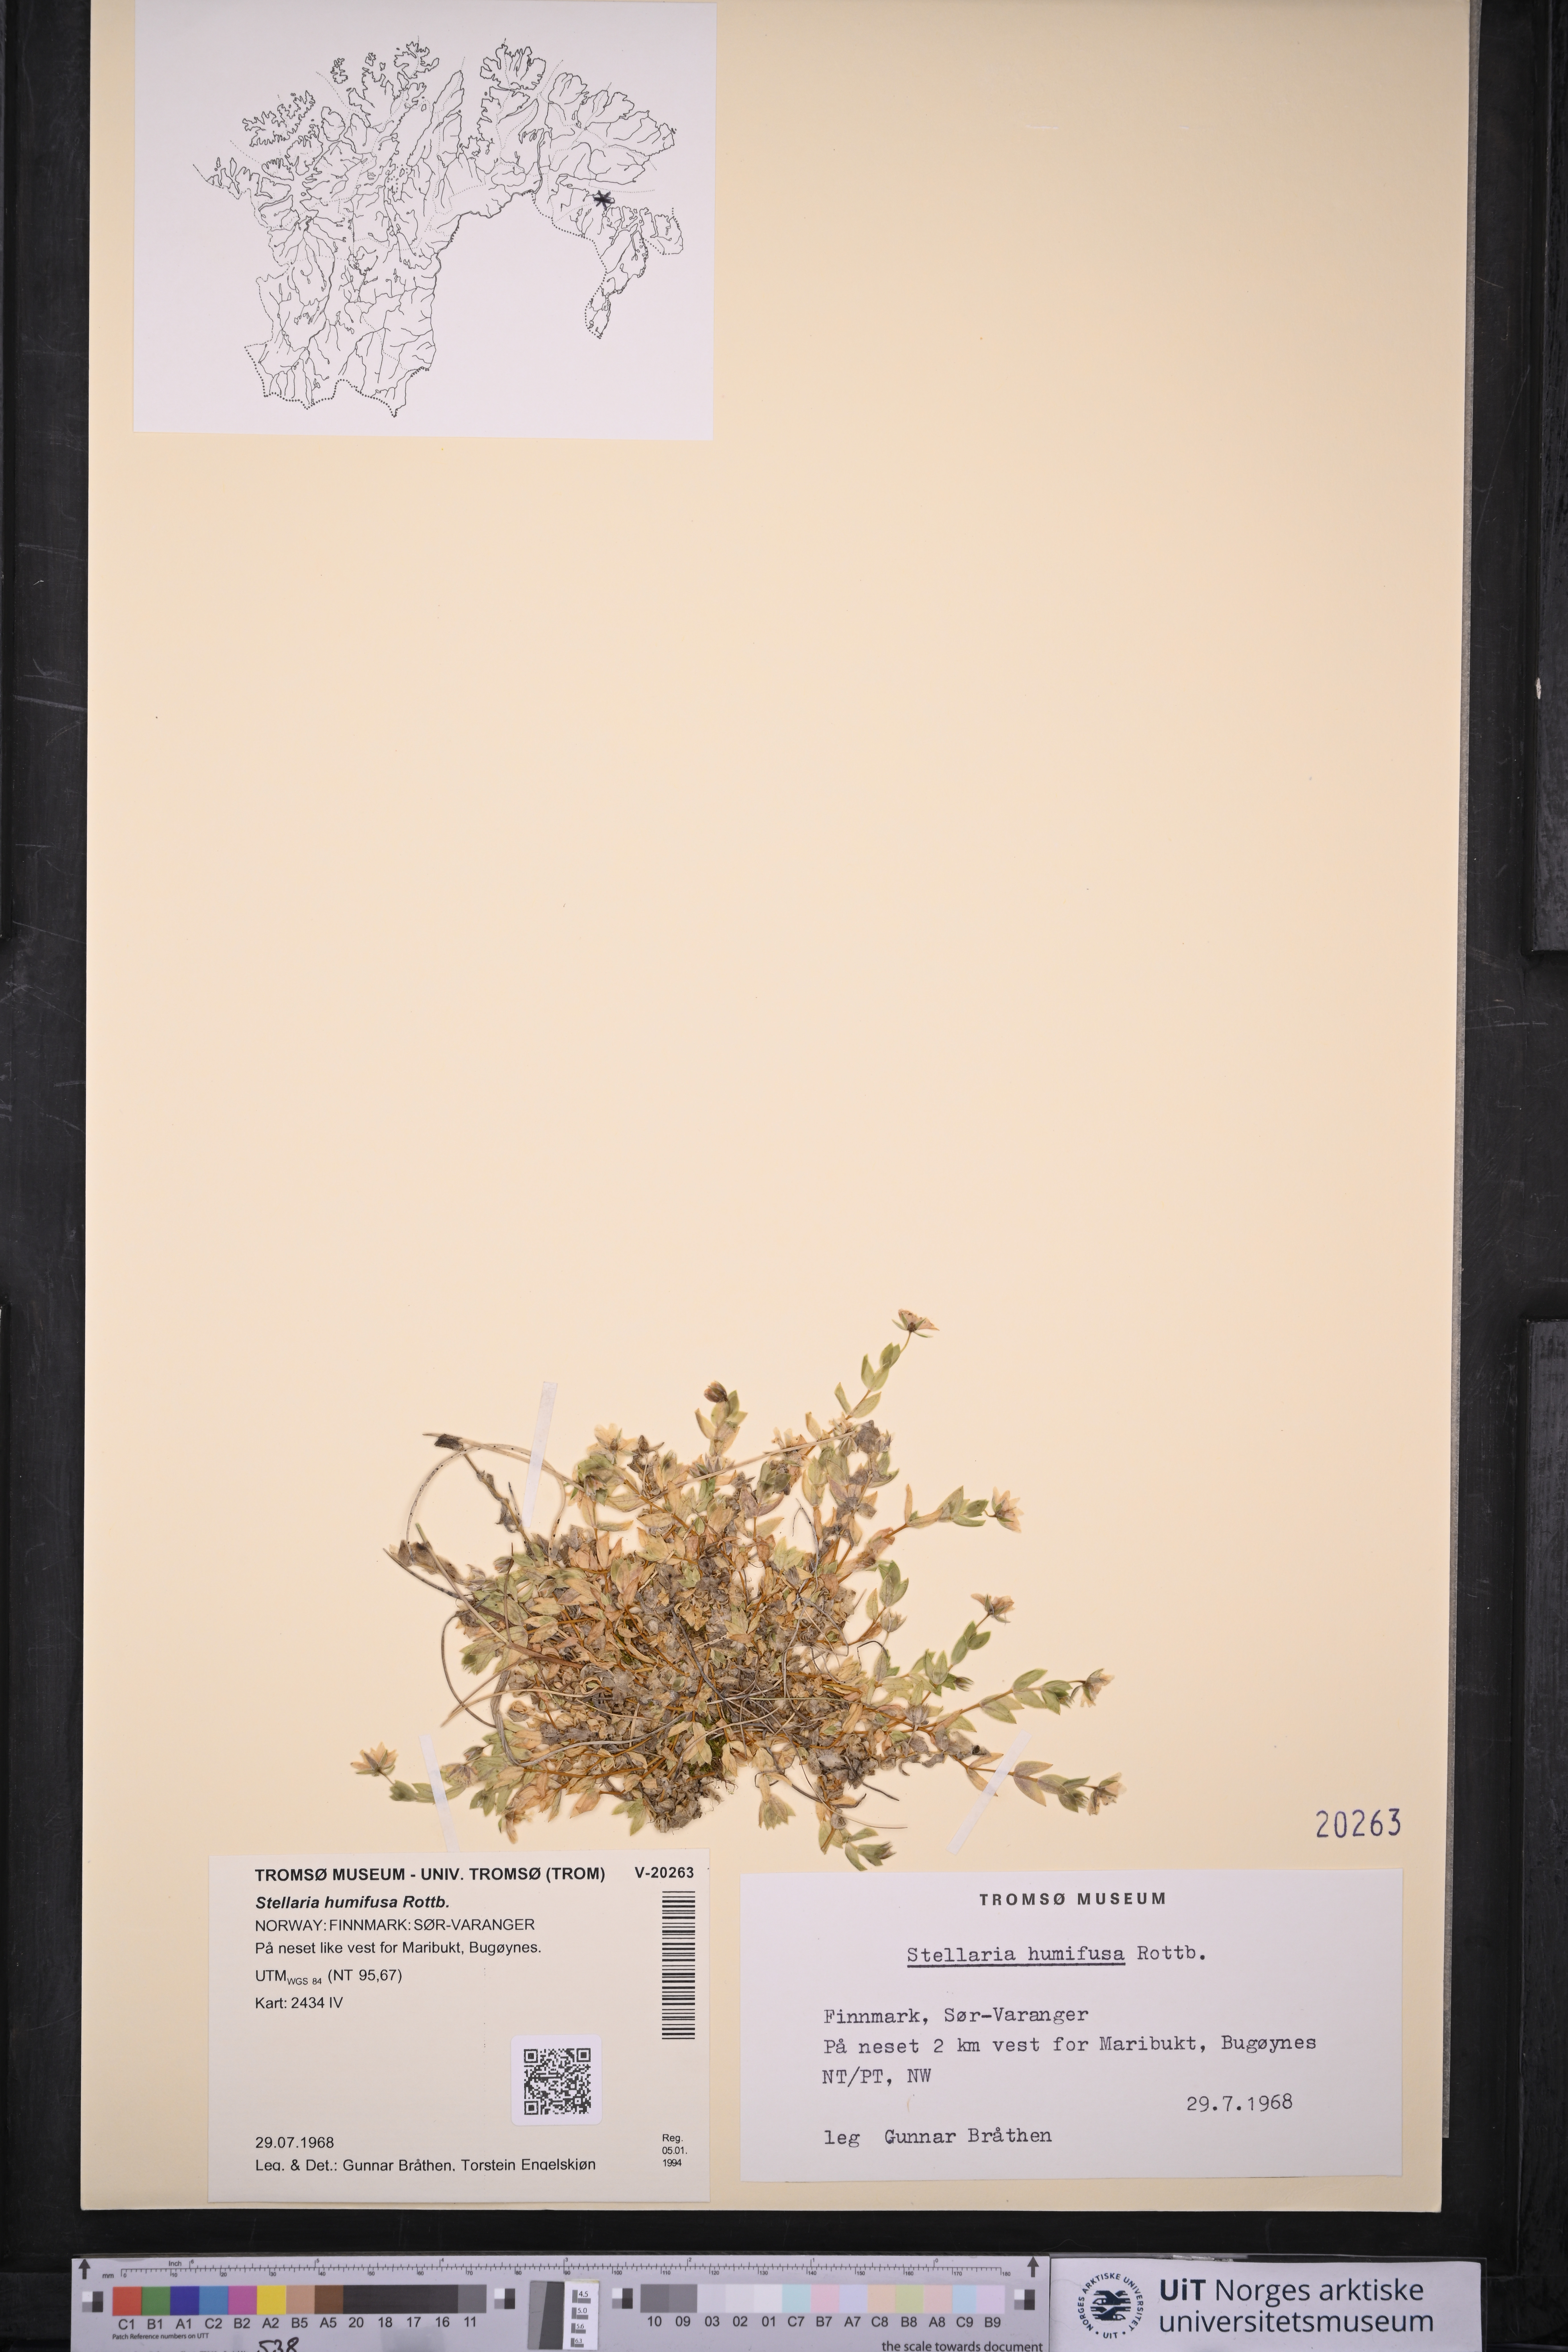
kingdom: Plantae
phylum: Tracheophyta
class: Magnoliopsida
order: Caryophyllales
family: Caryophyllaceae
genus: Stellaria
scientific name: Stellaria humifusa
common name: Creeping starwort
